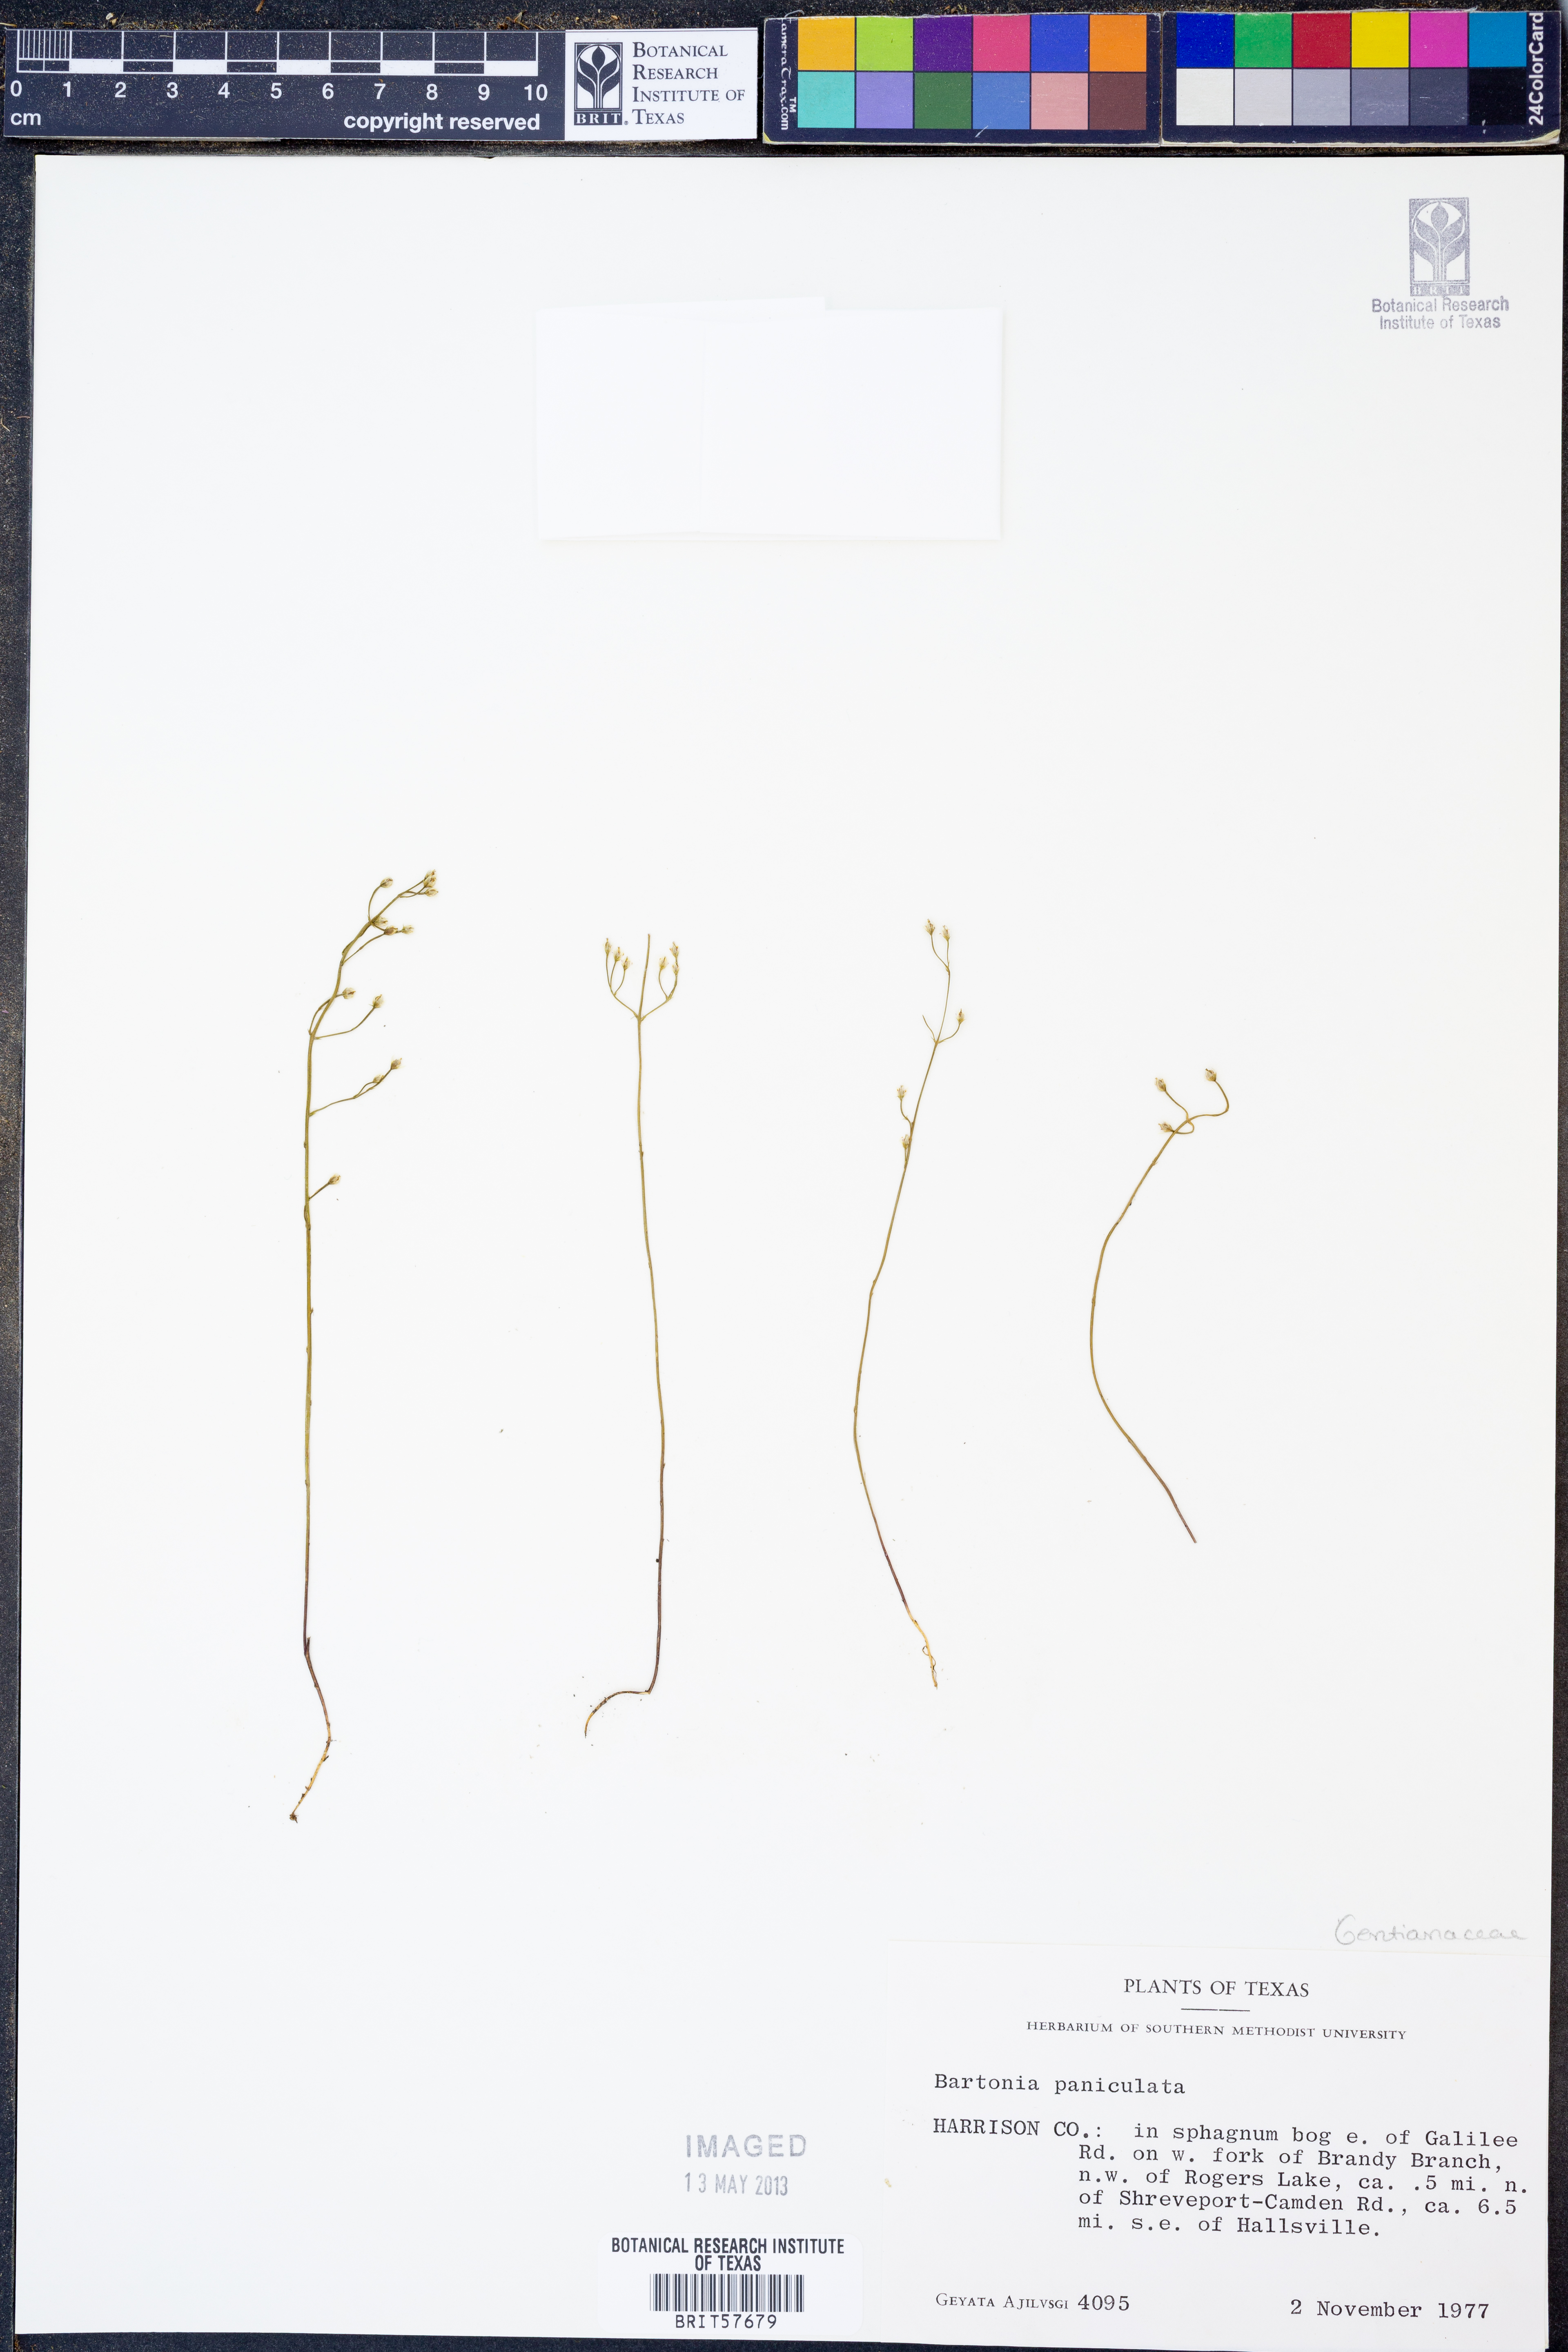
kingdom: Plantae
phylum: Tracheophyta
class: Magnoliopsida
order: Gentianales
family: Gentianaceae
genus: Bartonia
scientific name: Bartonia paniculata
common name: Branched bartonia
